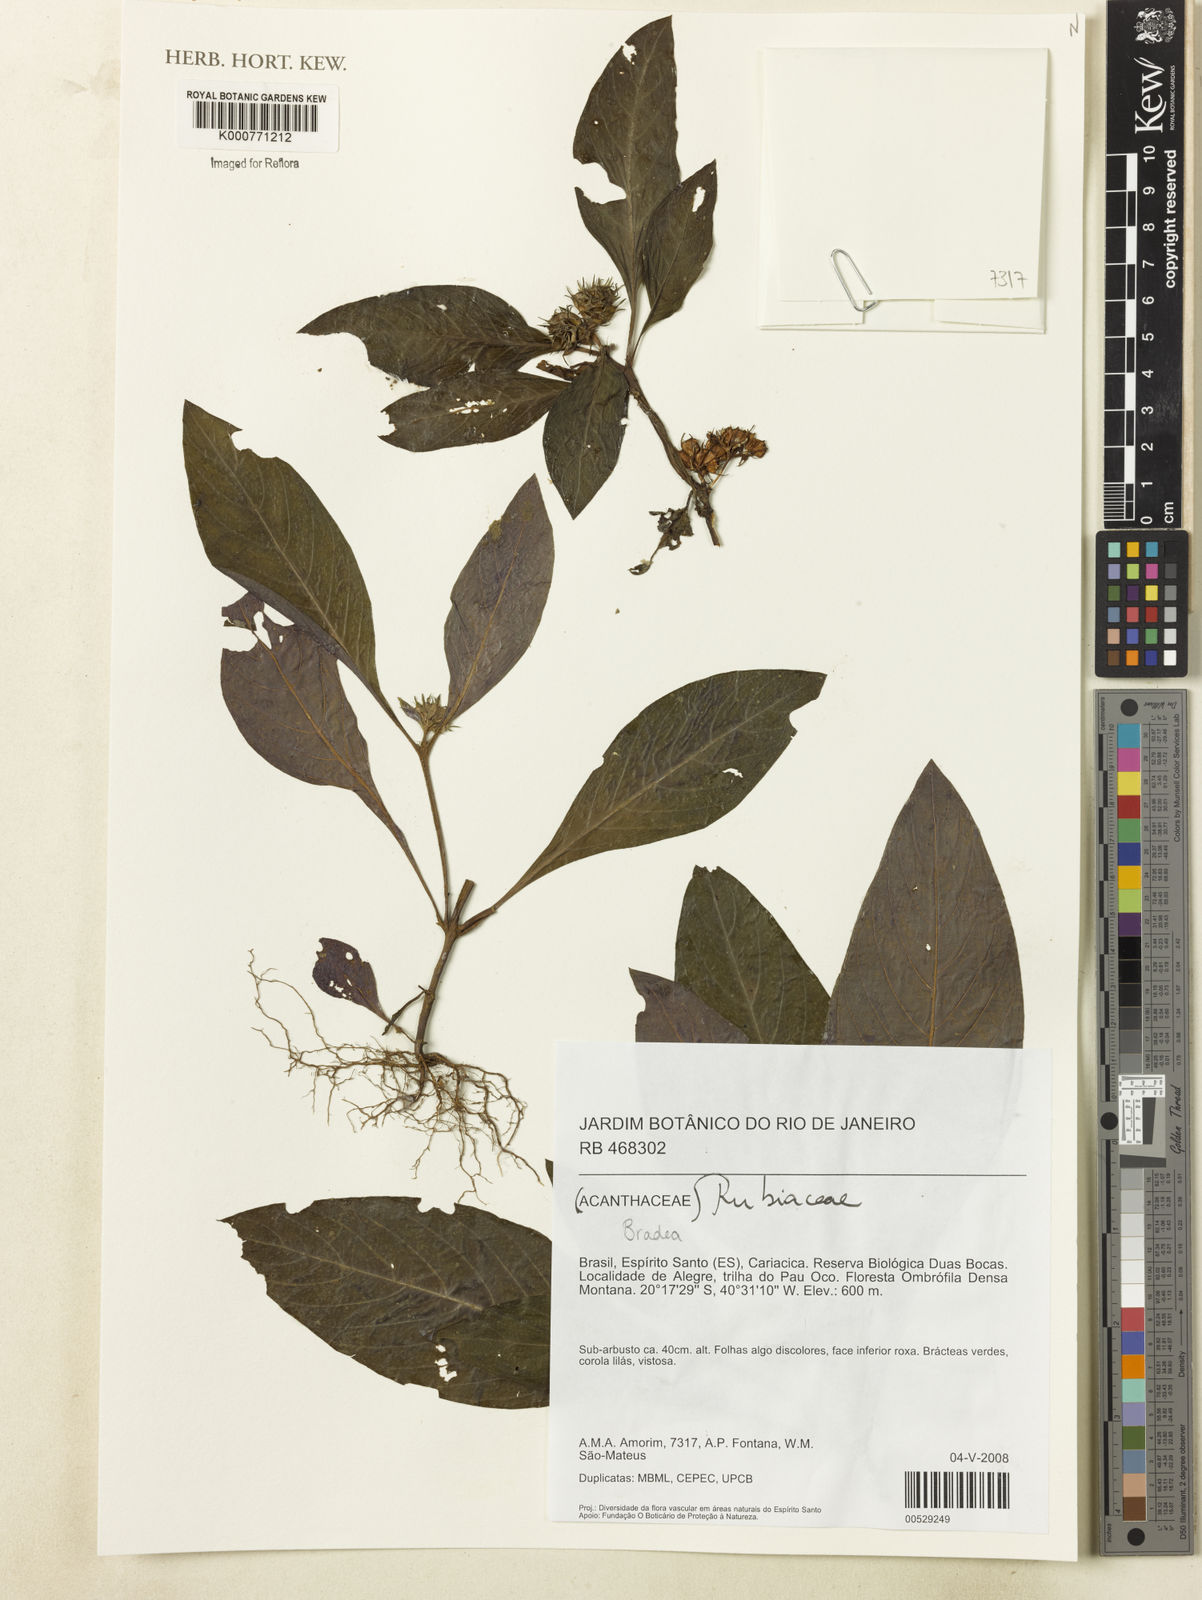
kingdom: Plantae
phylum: Tracheophyta
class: Magnoliopsida
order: Gentianales
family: Rubiaceae
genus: Bradea
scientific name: Bradea
